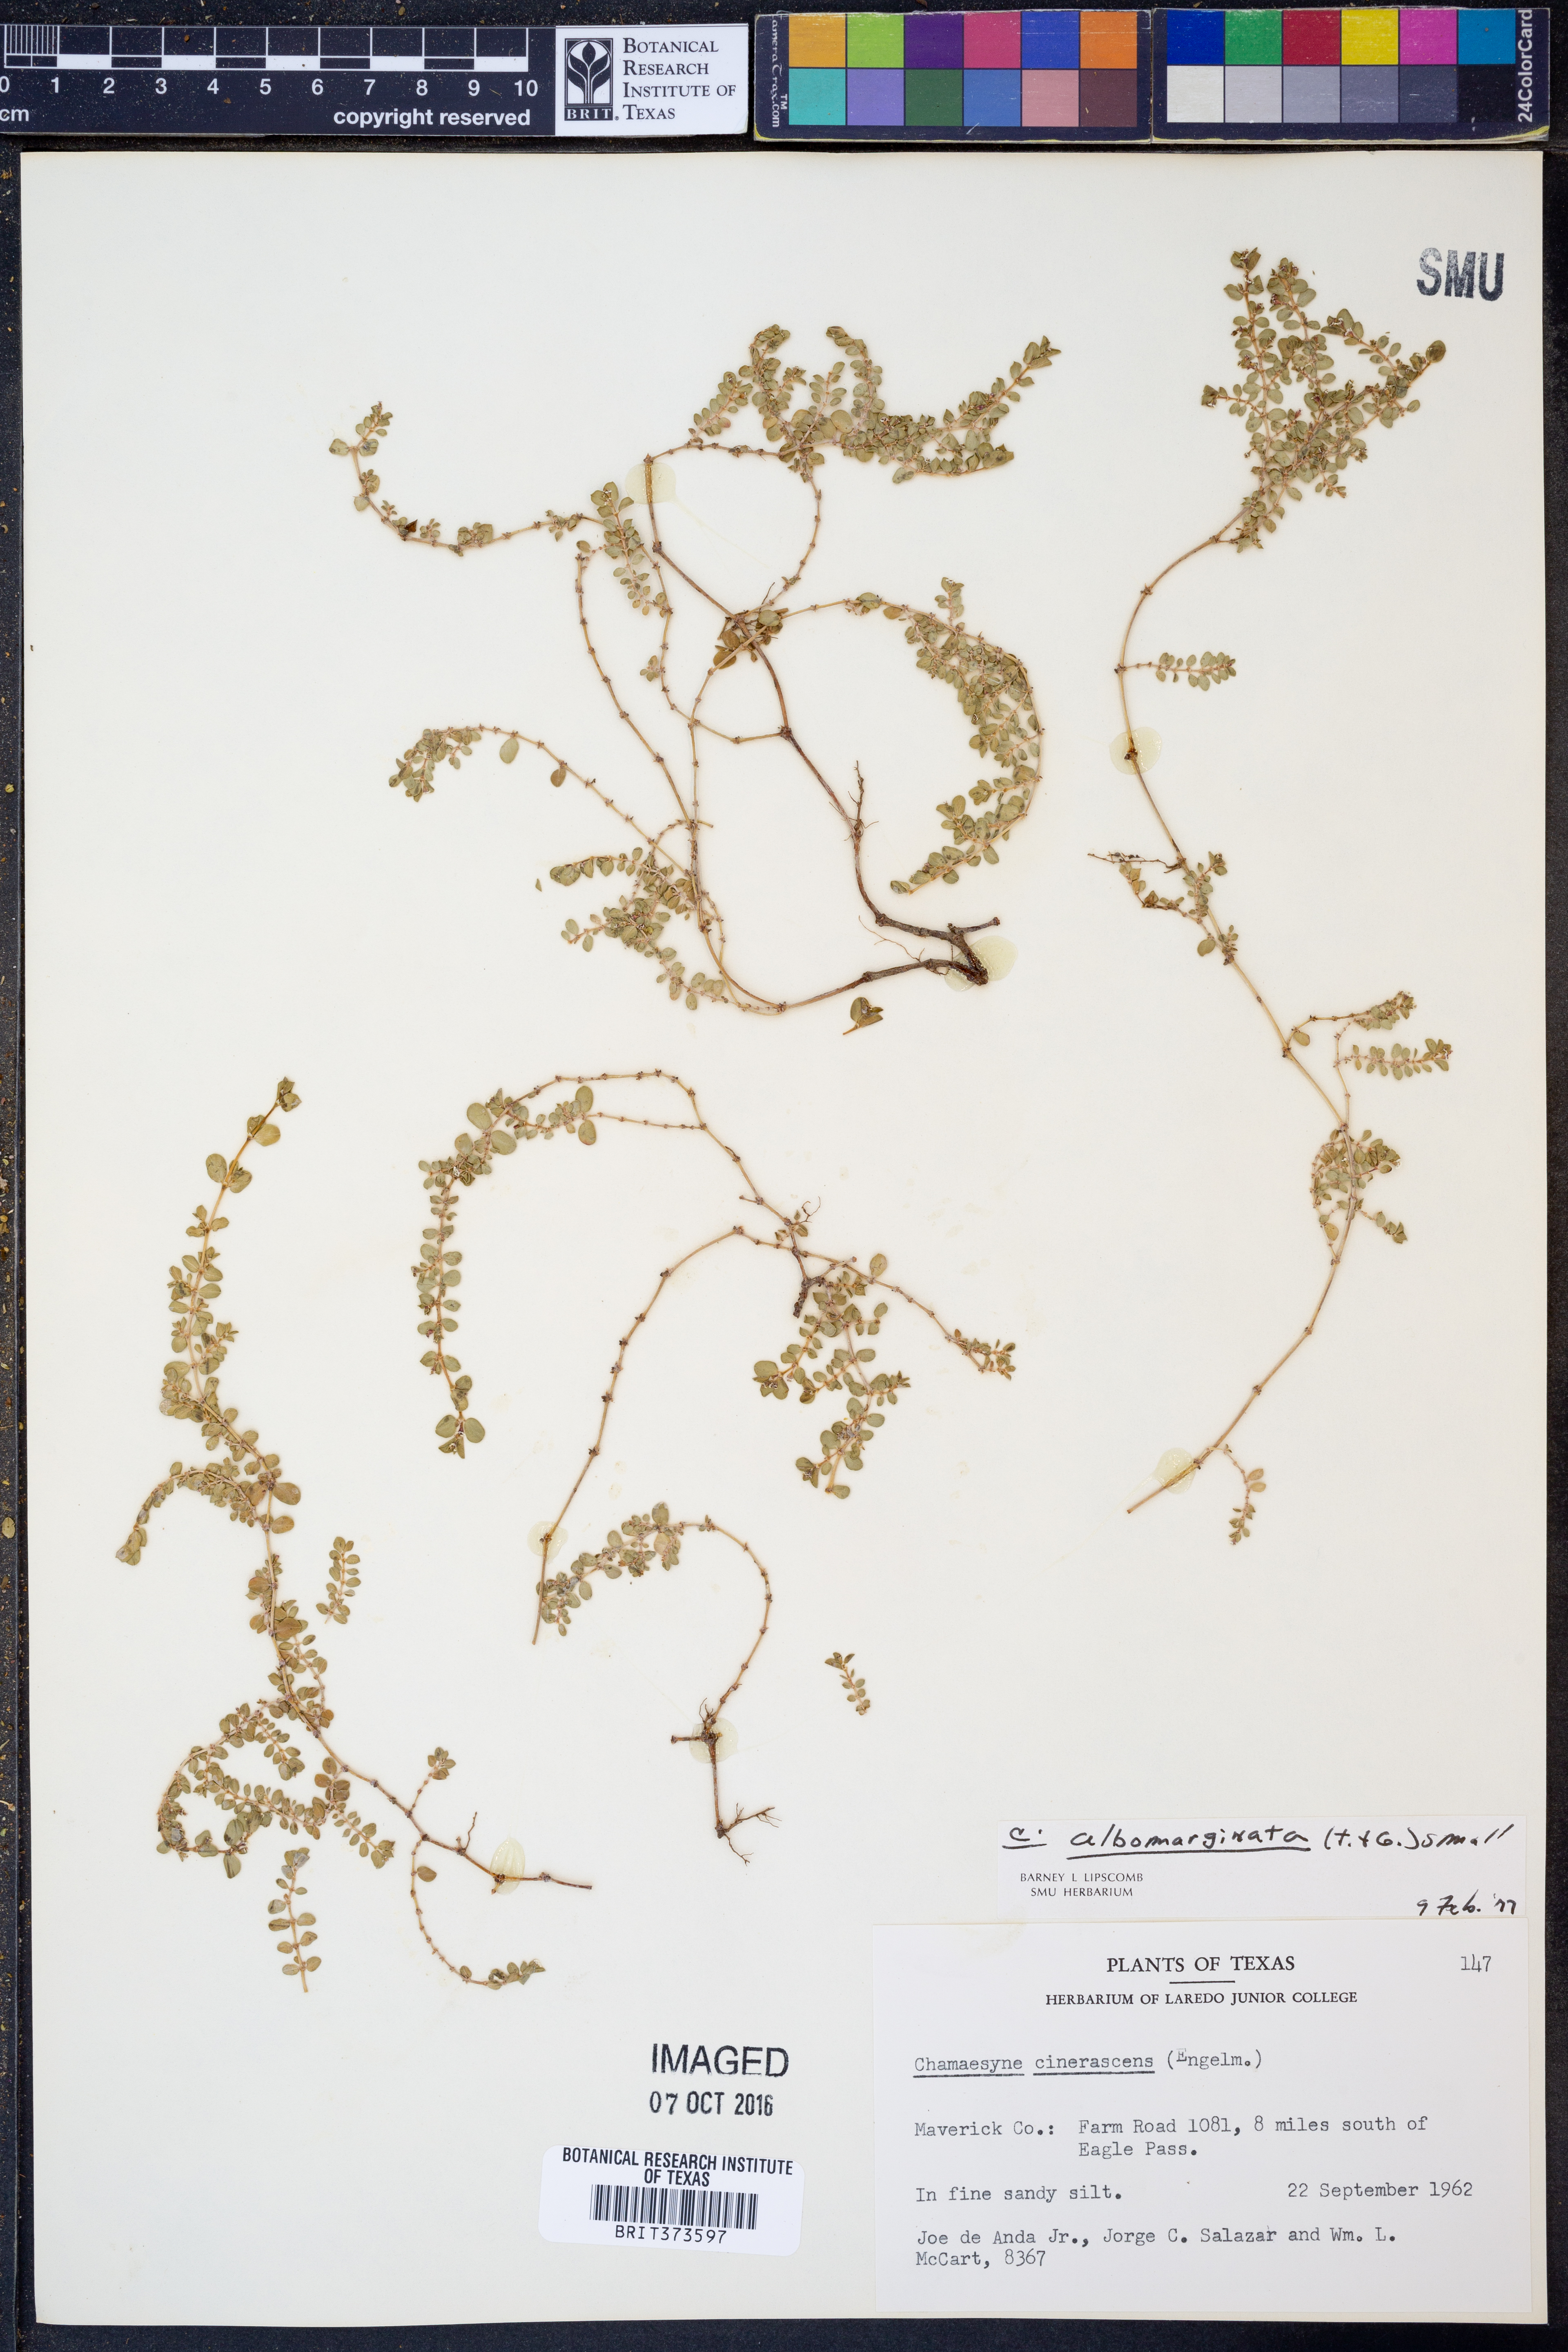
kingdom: Plantae
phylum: Tracheophyta
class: Magnoliopsida
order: Malpighiales
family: Euphorbiaceae
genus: Euphorbia
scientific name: Euphorbia albomarginata
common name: Whitemargin sandmat
